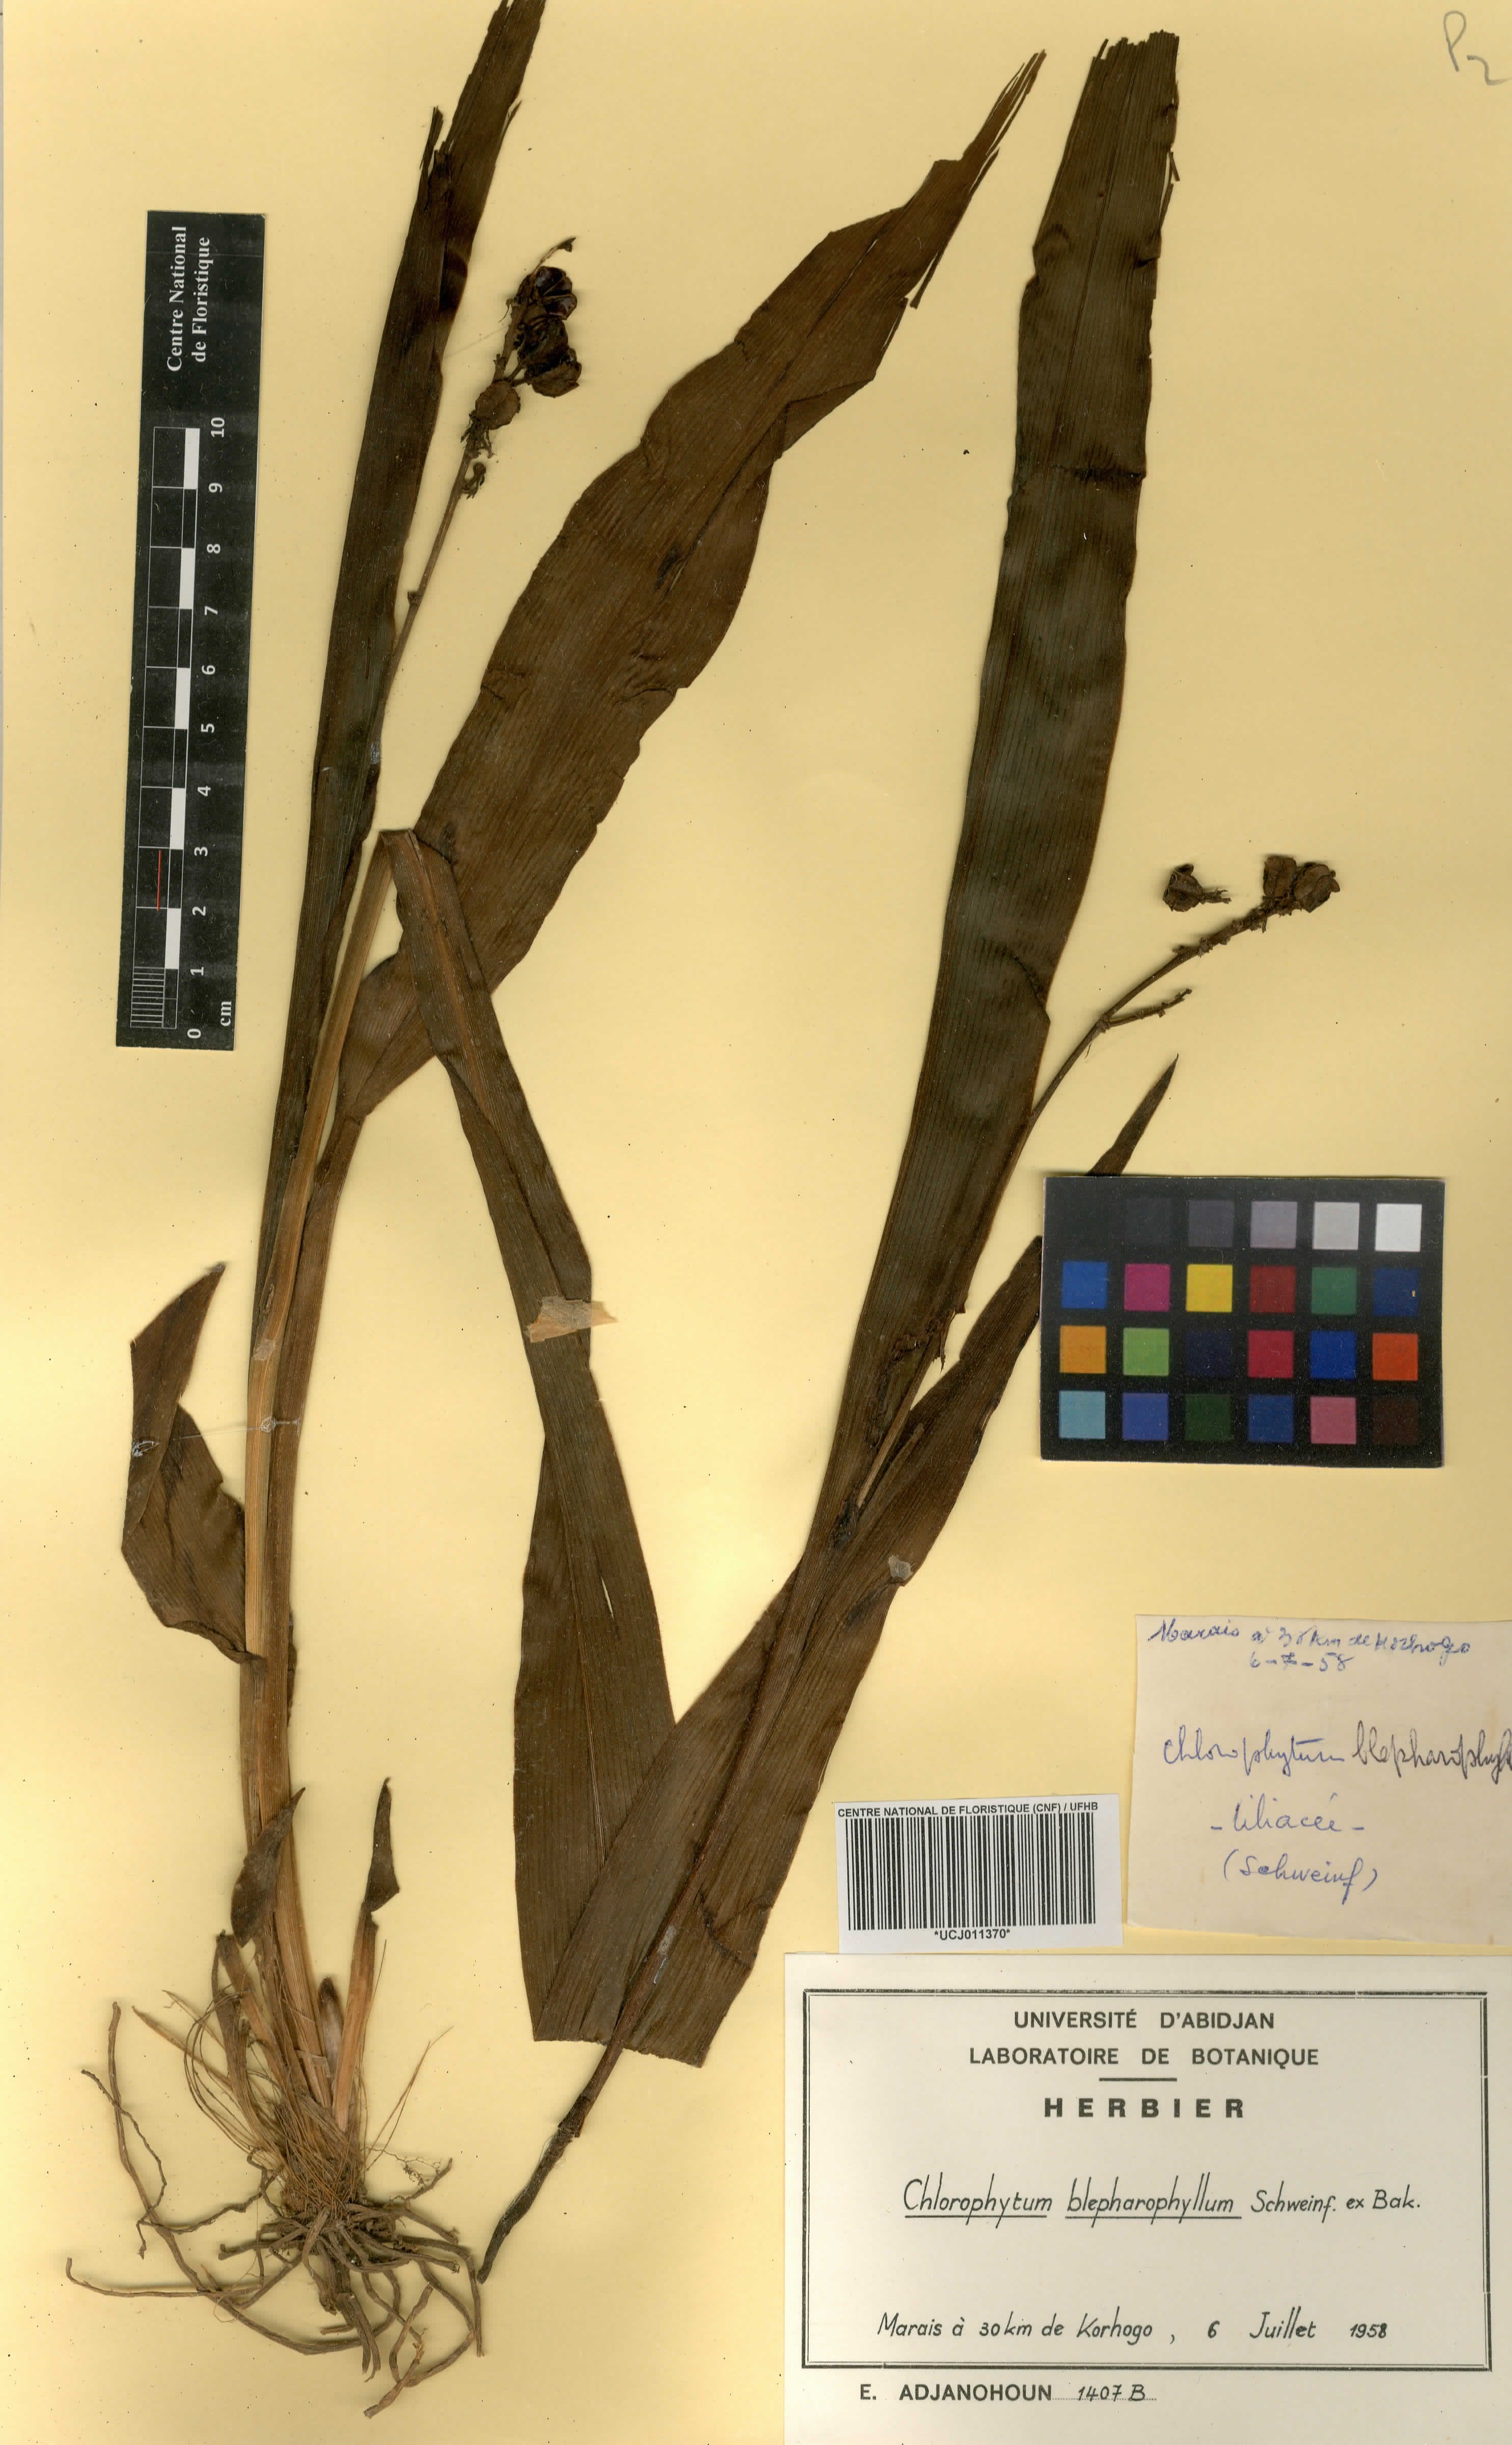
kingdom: Plantae
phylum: Tracheophyta
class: Liliopsida
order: Asparagales
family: Asparagaceae
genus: Chlorophytum
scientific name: Chlorophytum blepharophyllum
